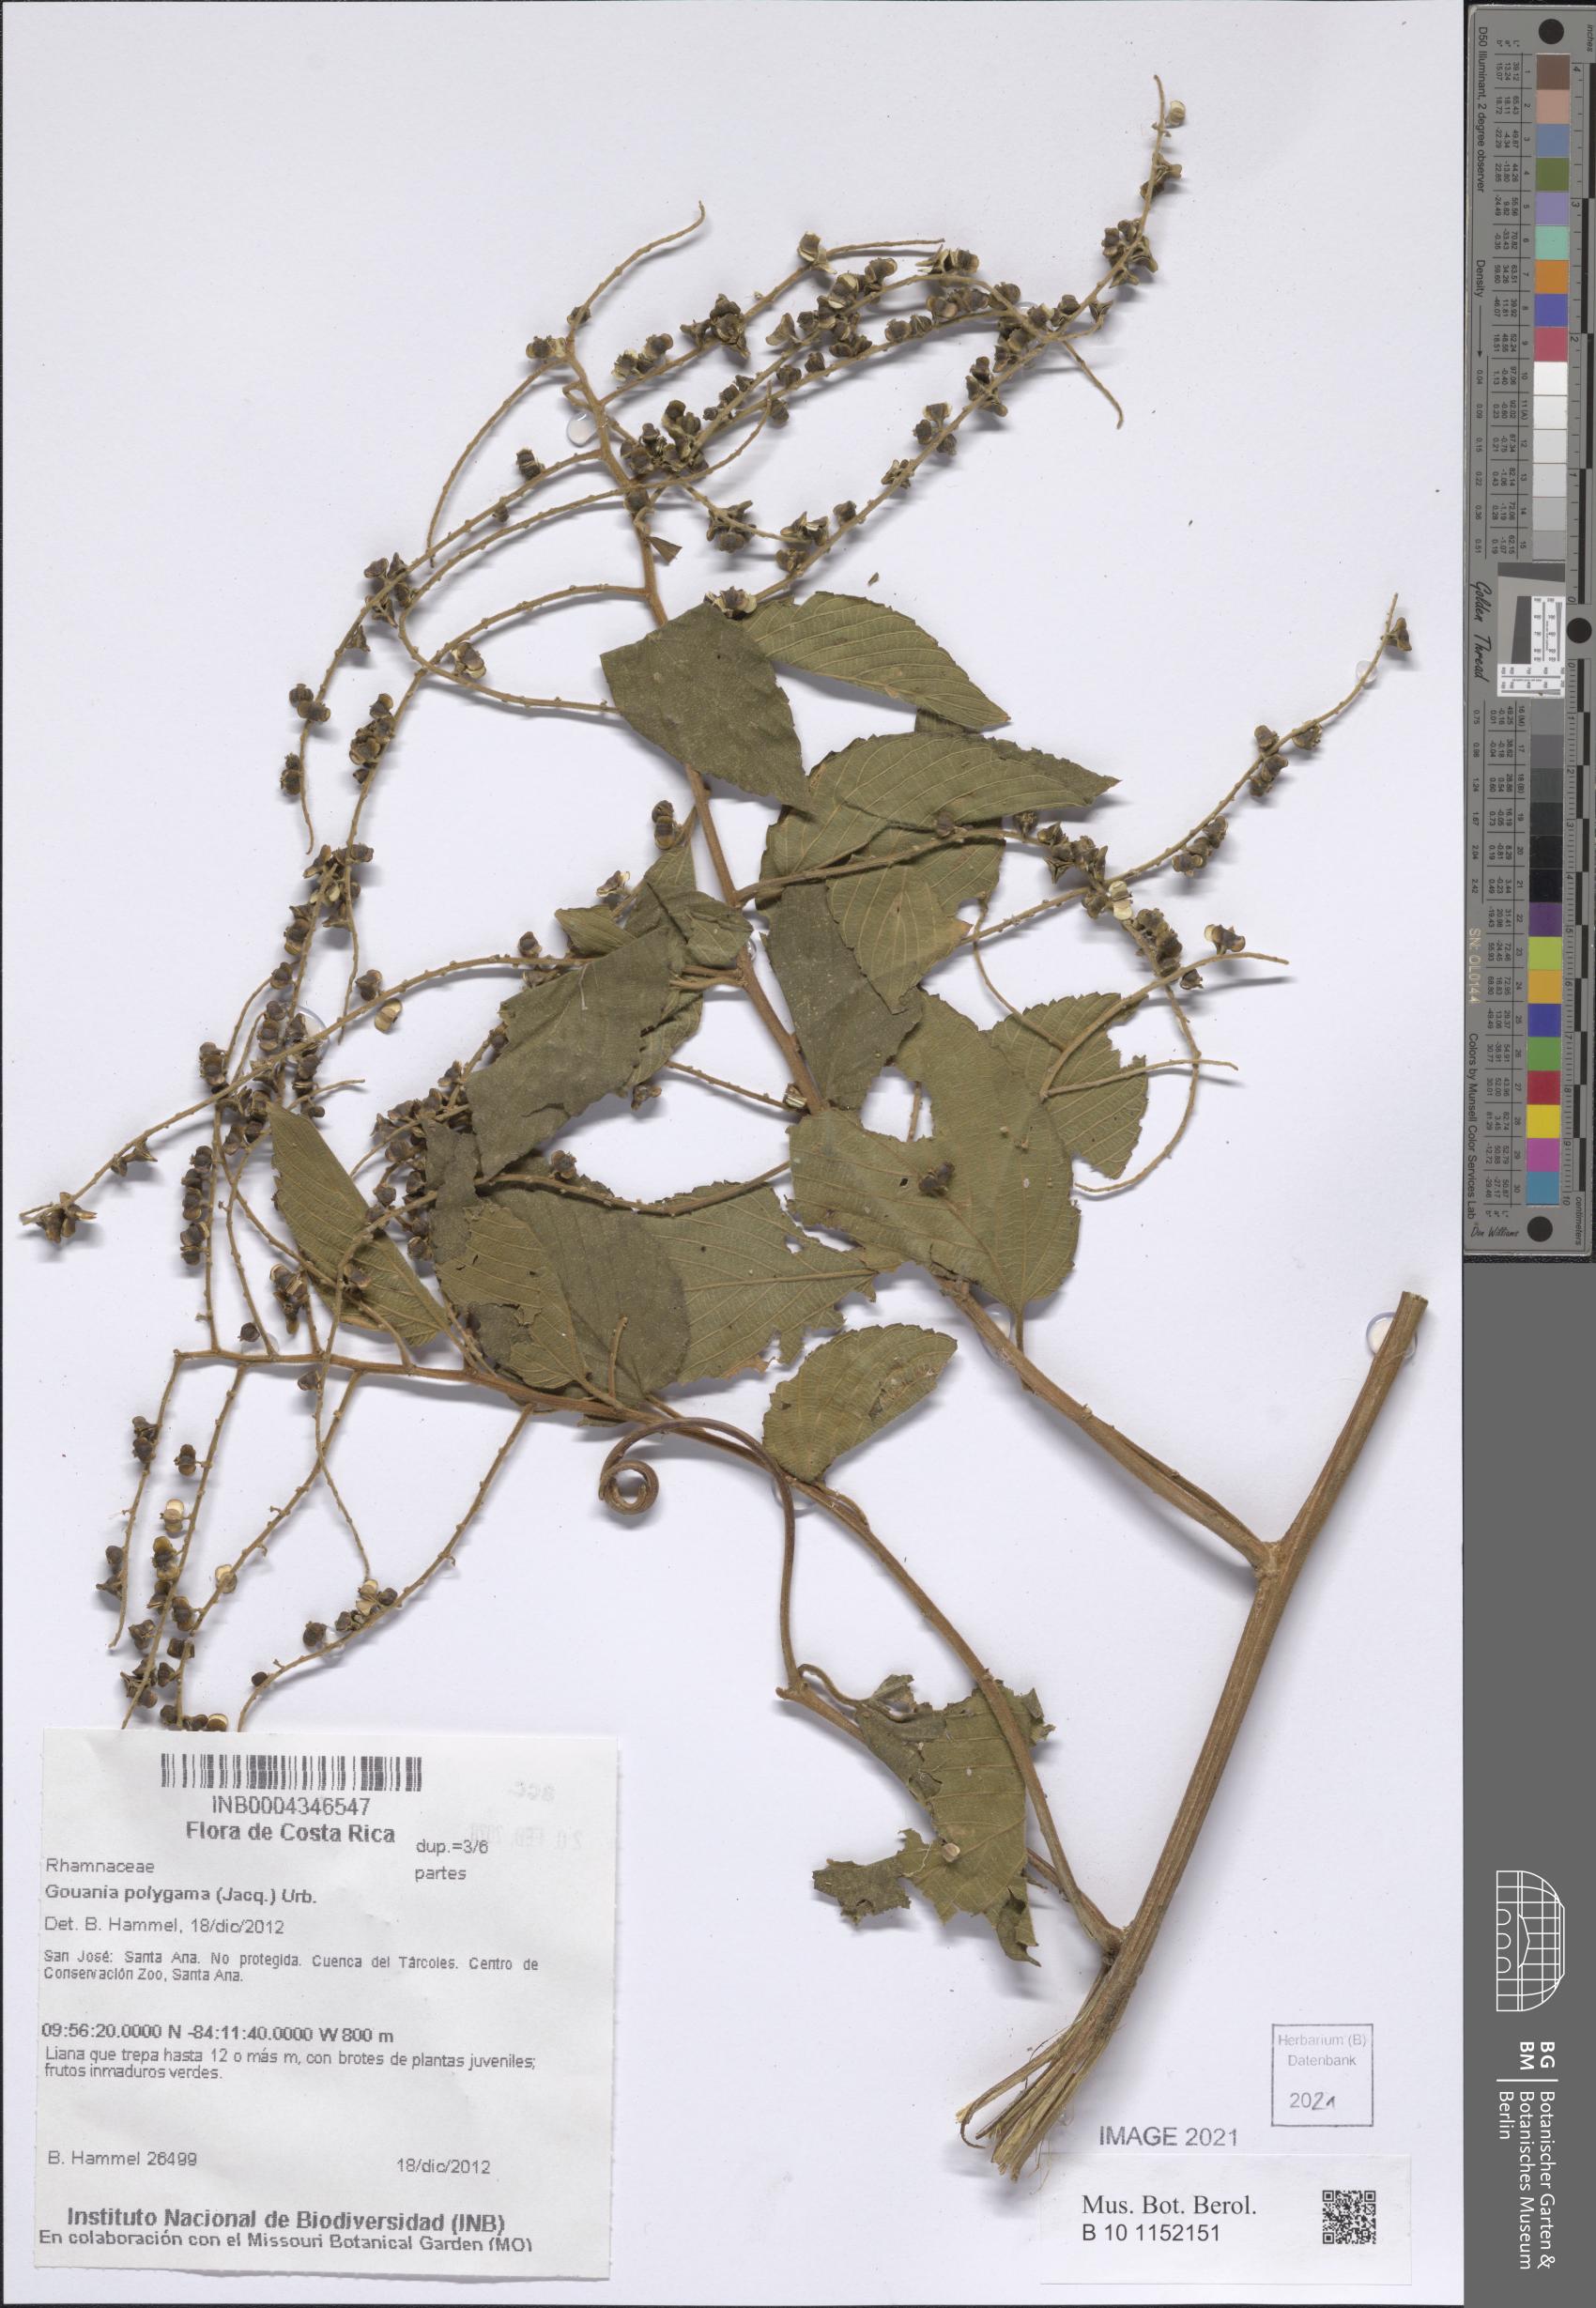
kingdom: Plantae
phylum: Tracheophyta
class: Magnoliopsida
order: Rosales
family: Rhamnaceae
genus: Gouania
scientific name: Gouania polygama
